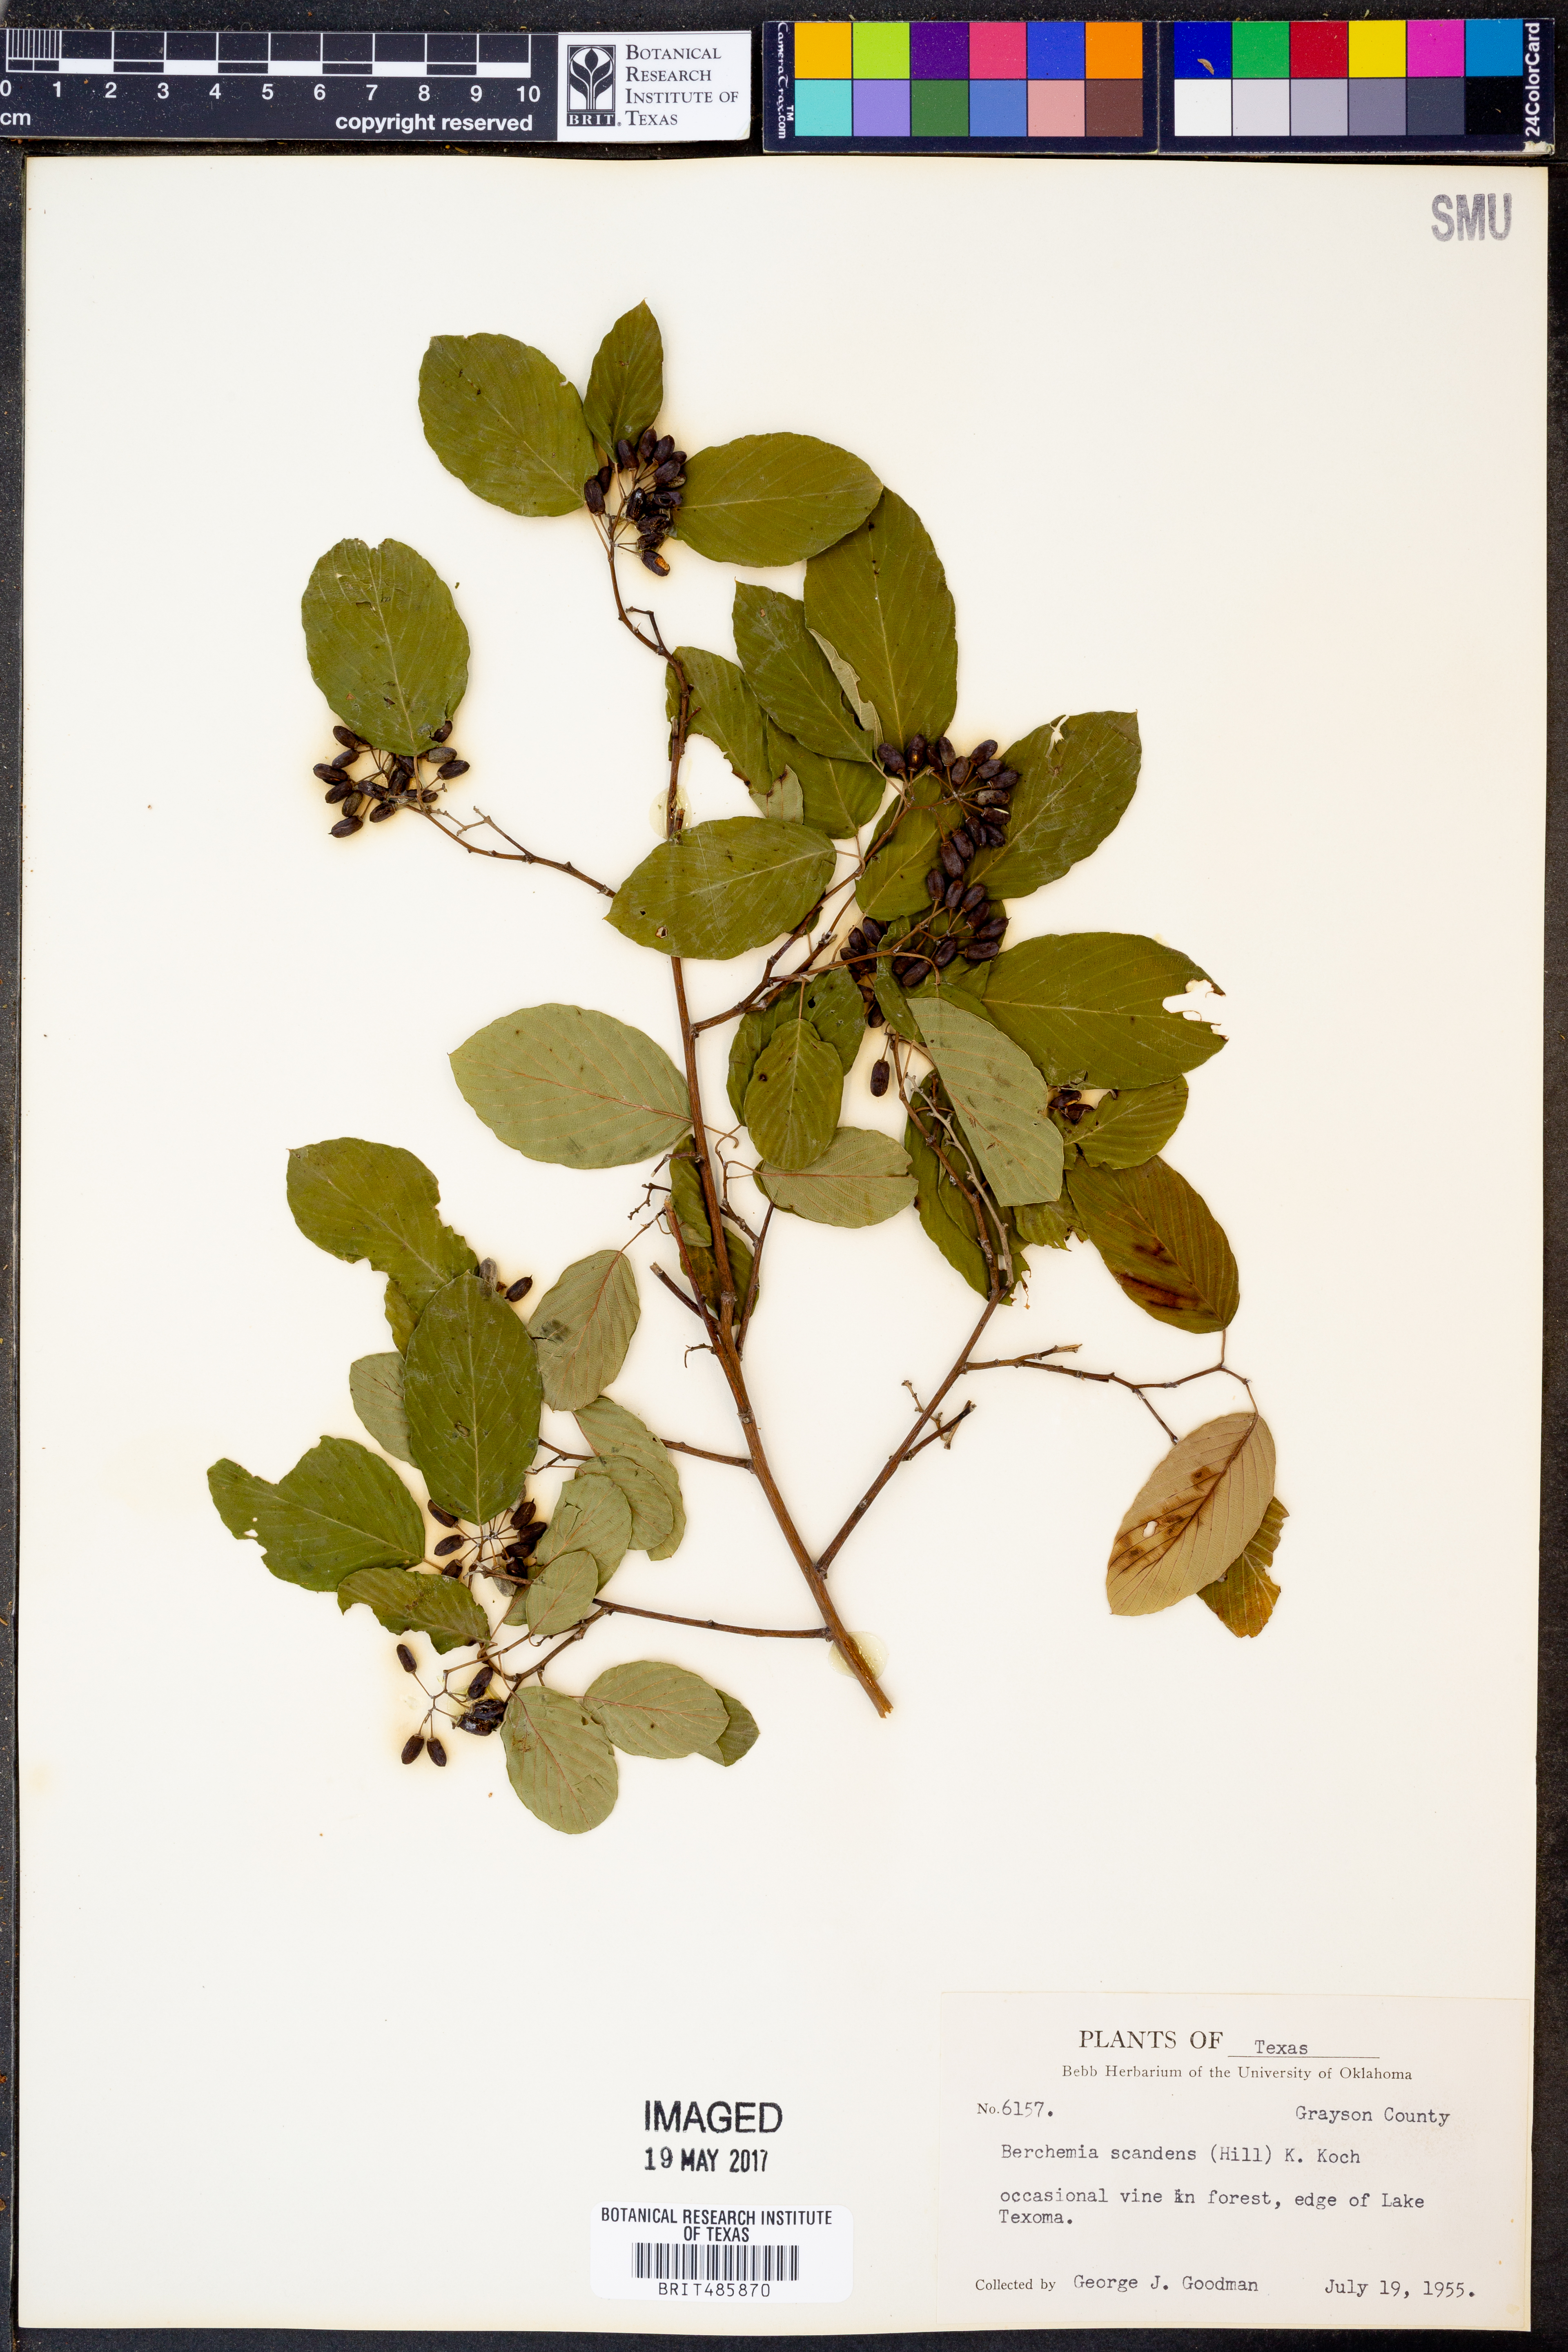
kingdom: Plantae
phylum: Tracheophyta
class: Magnoliopsida
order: Rosales
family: Rhamnaceae
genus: Berchemia
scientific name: Berchemia scandens
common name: Supplejack
